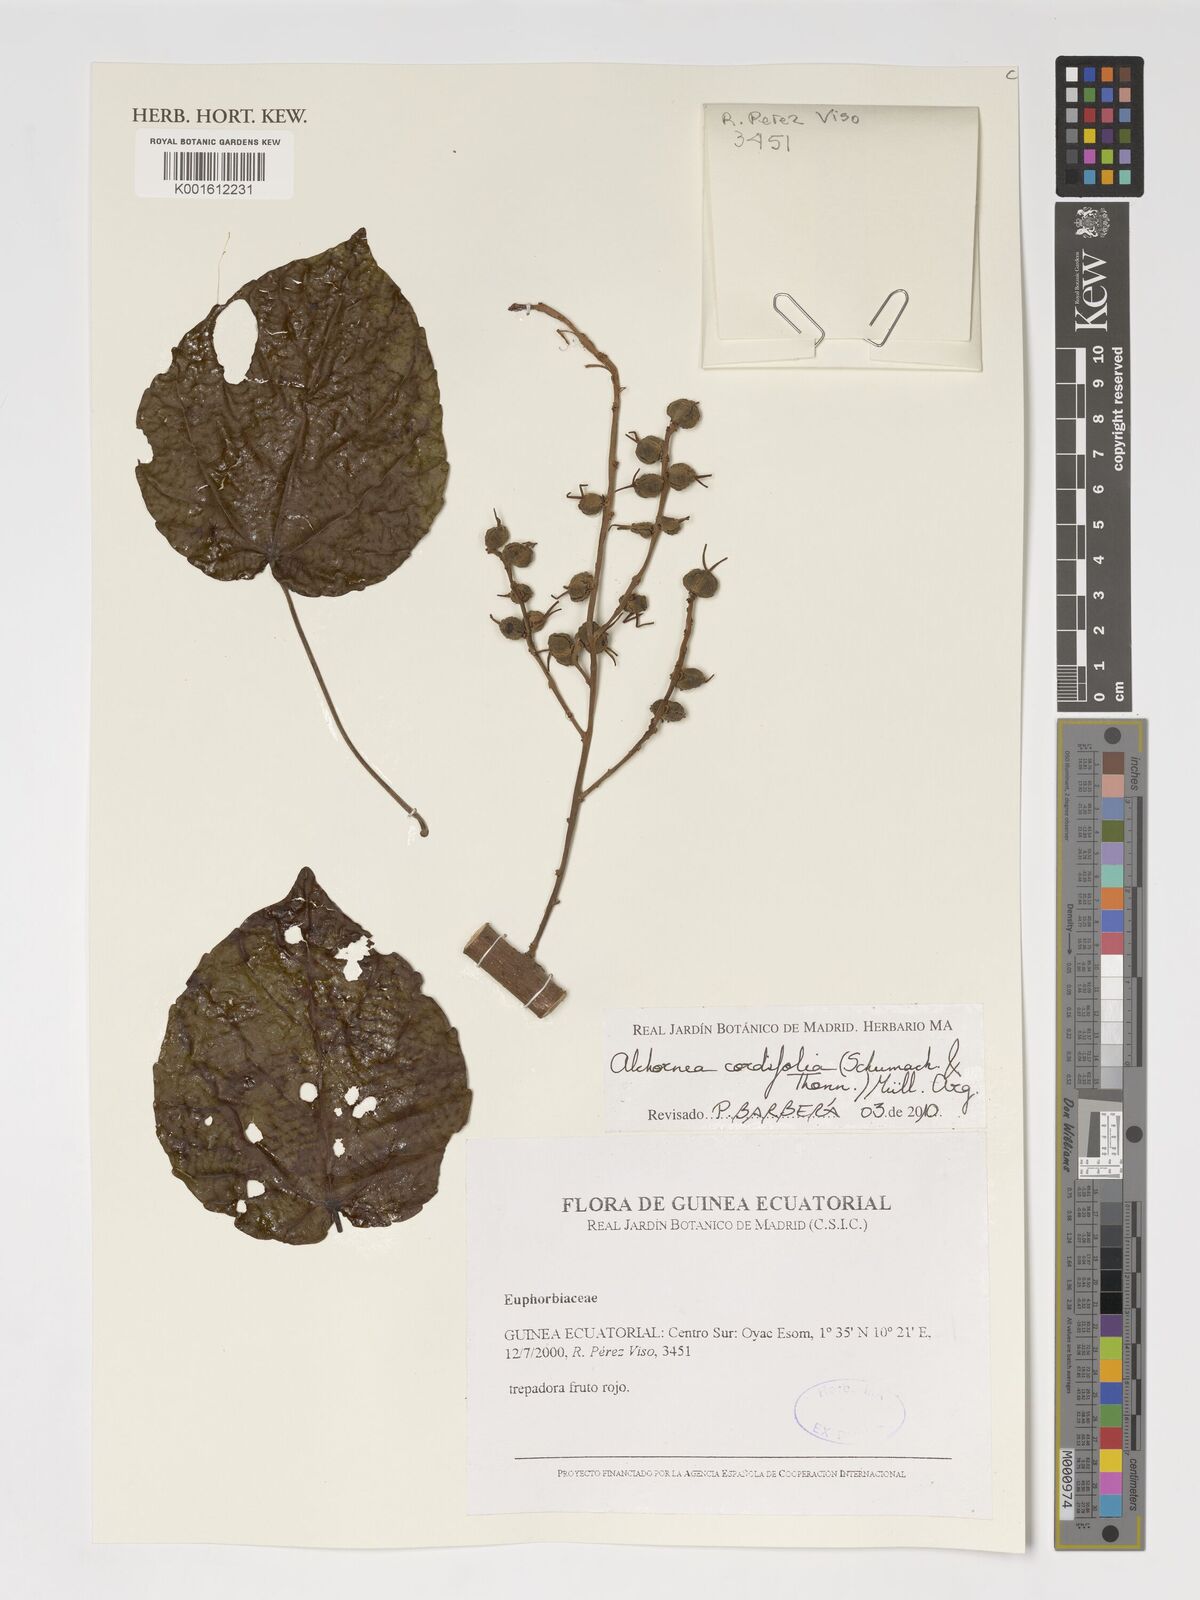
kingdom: Plantae
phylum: Tracheophyta
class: Magnoliopsida
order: Malpighiales
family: Euphorbiaceae
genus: Alchornea
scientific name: Alchornea cordifolia
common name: Christmasbush
